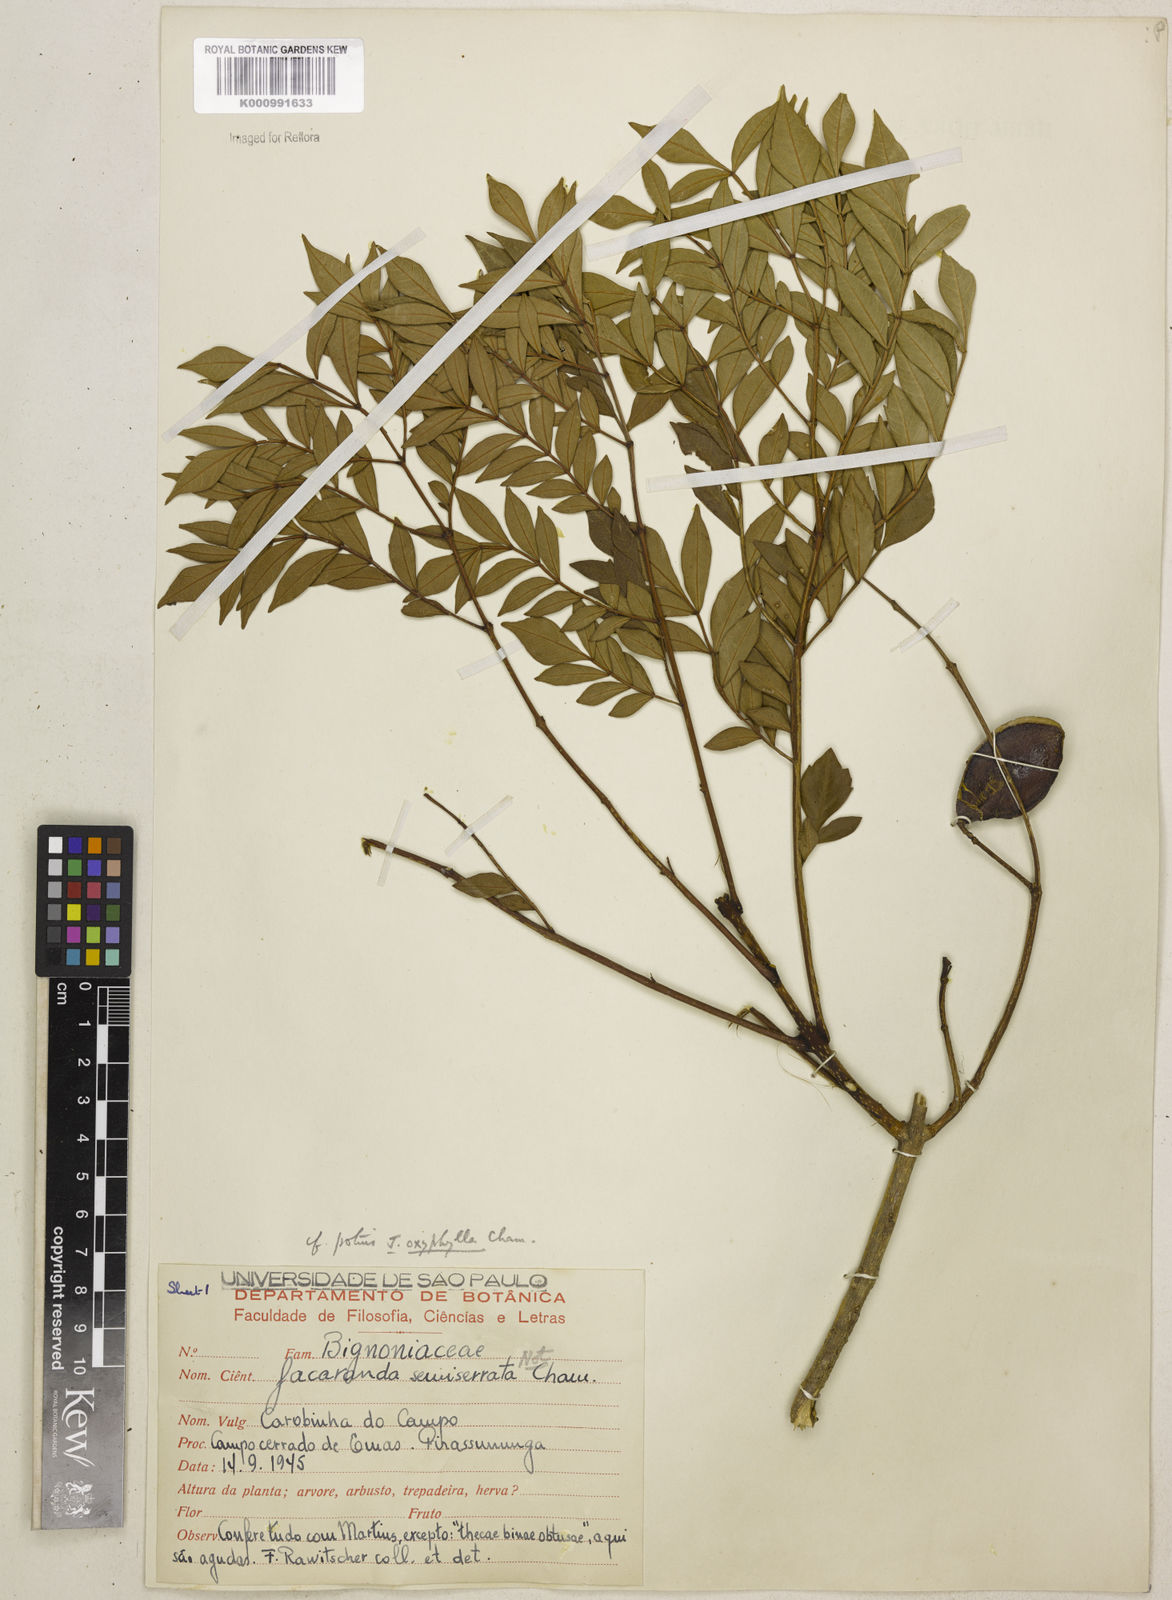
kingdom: Plantae
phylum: Tracheophyta
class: Magnoliopsida
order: Lamiales
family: Bignoniaceae
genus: Jacaranda
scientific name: Jacaranda caroba
